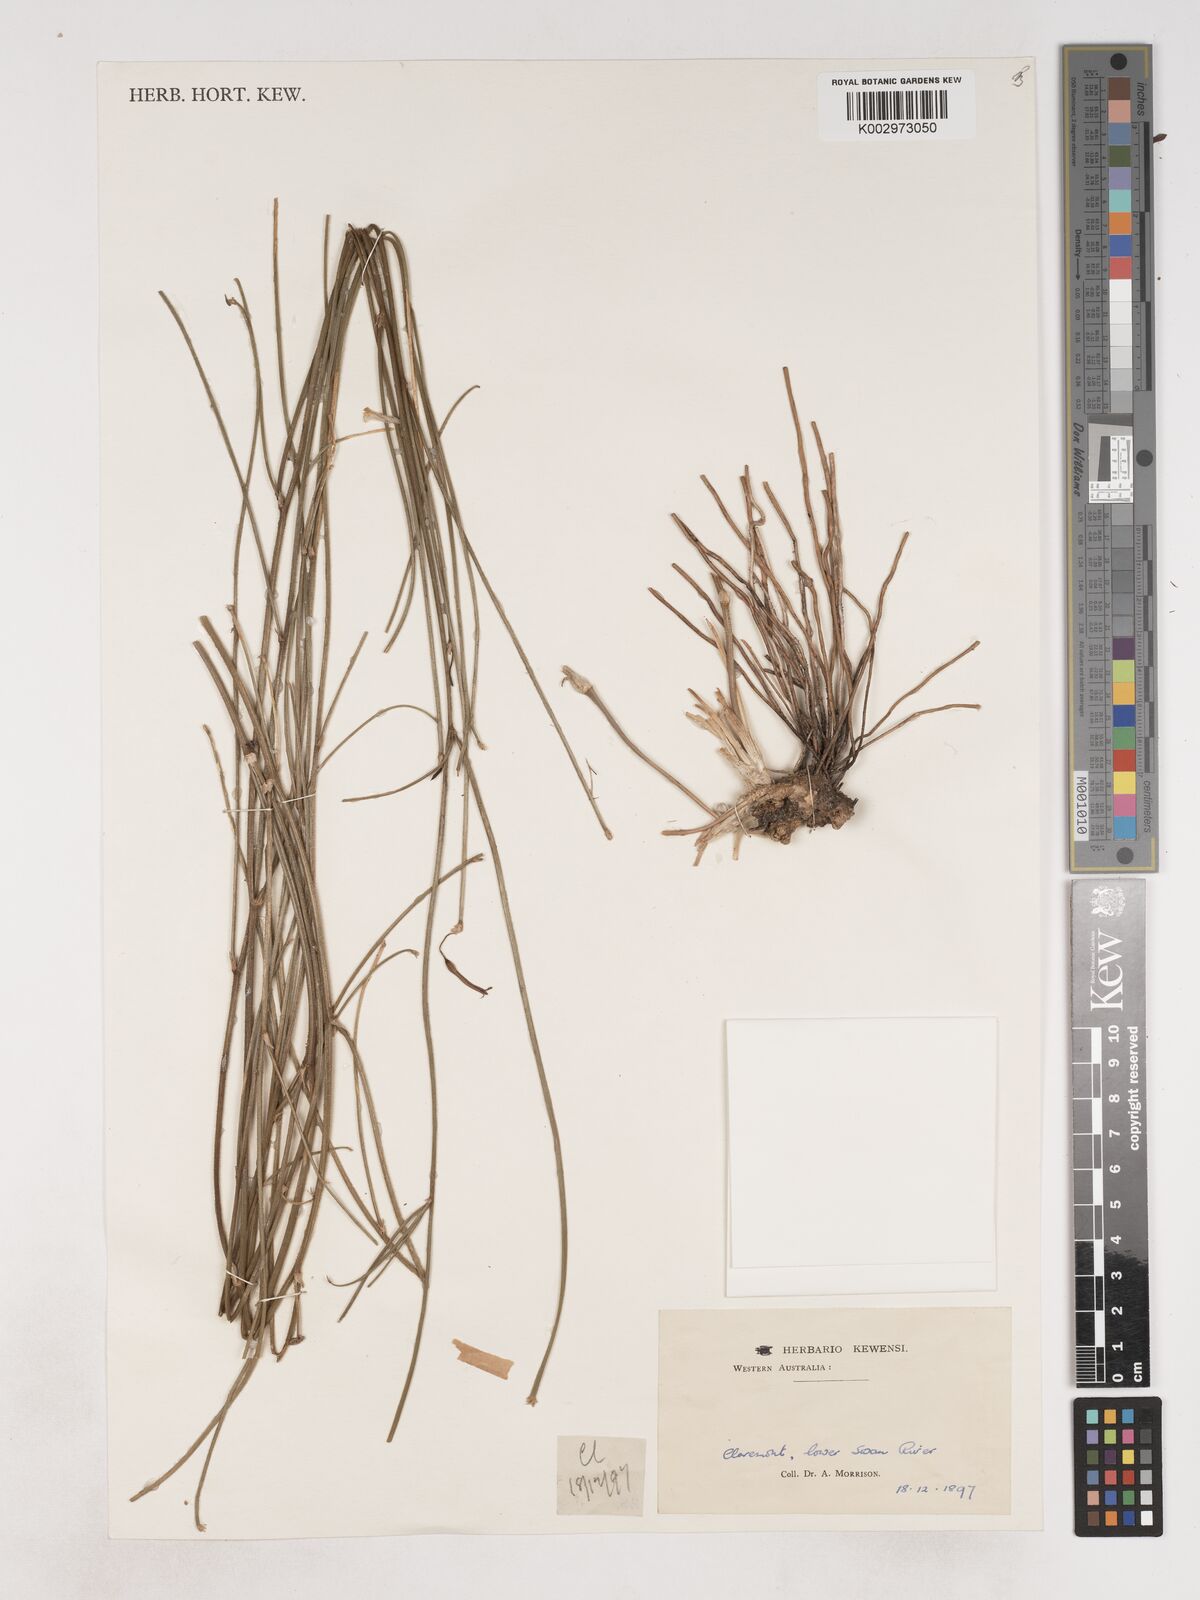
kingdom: Plantae
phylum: Tracheophyta
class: Liliopsida
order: Asparagales
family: Asparagaceae
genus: Thysanotus
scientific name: Thysanotus arenarius
